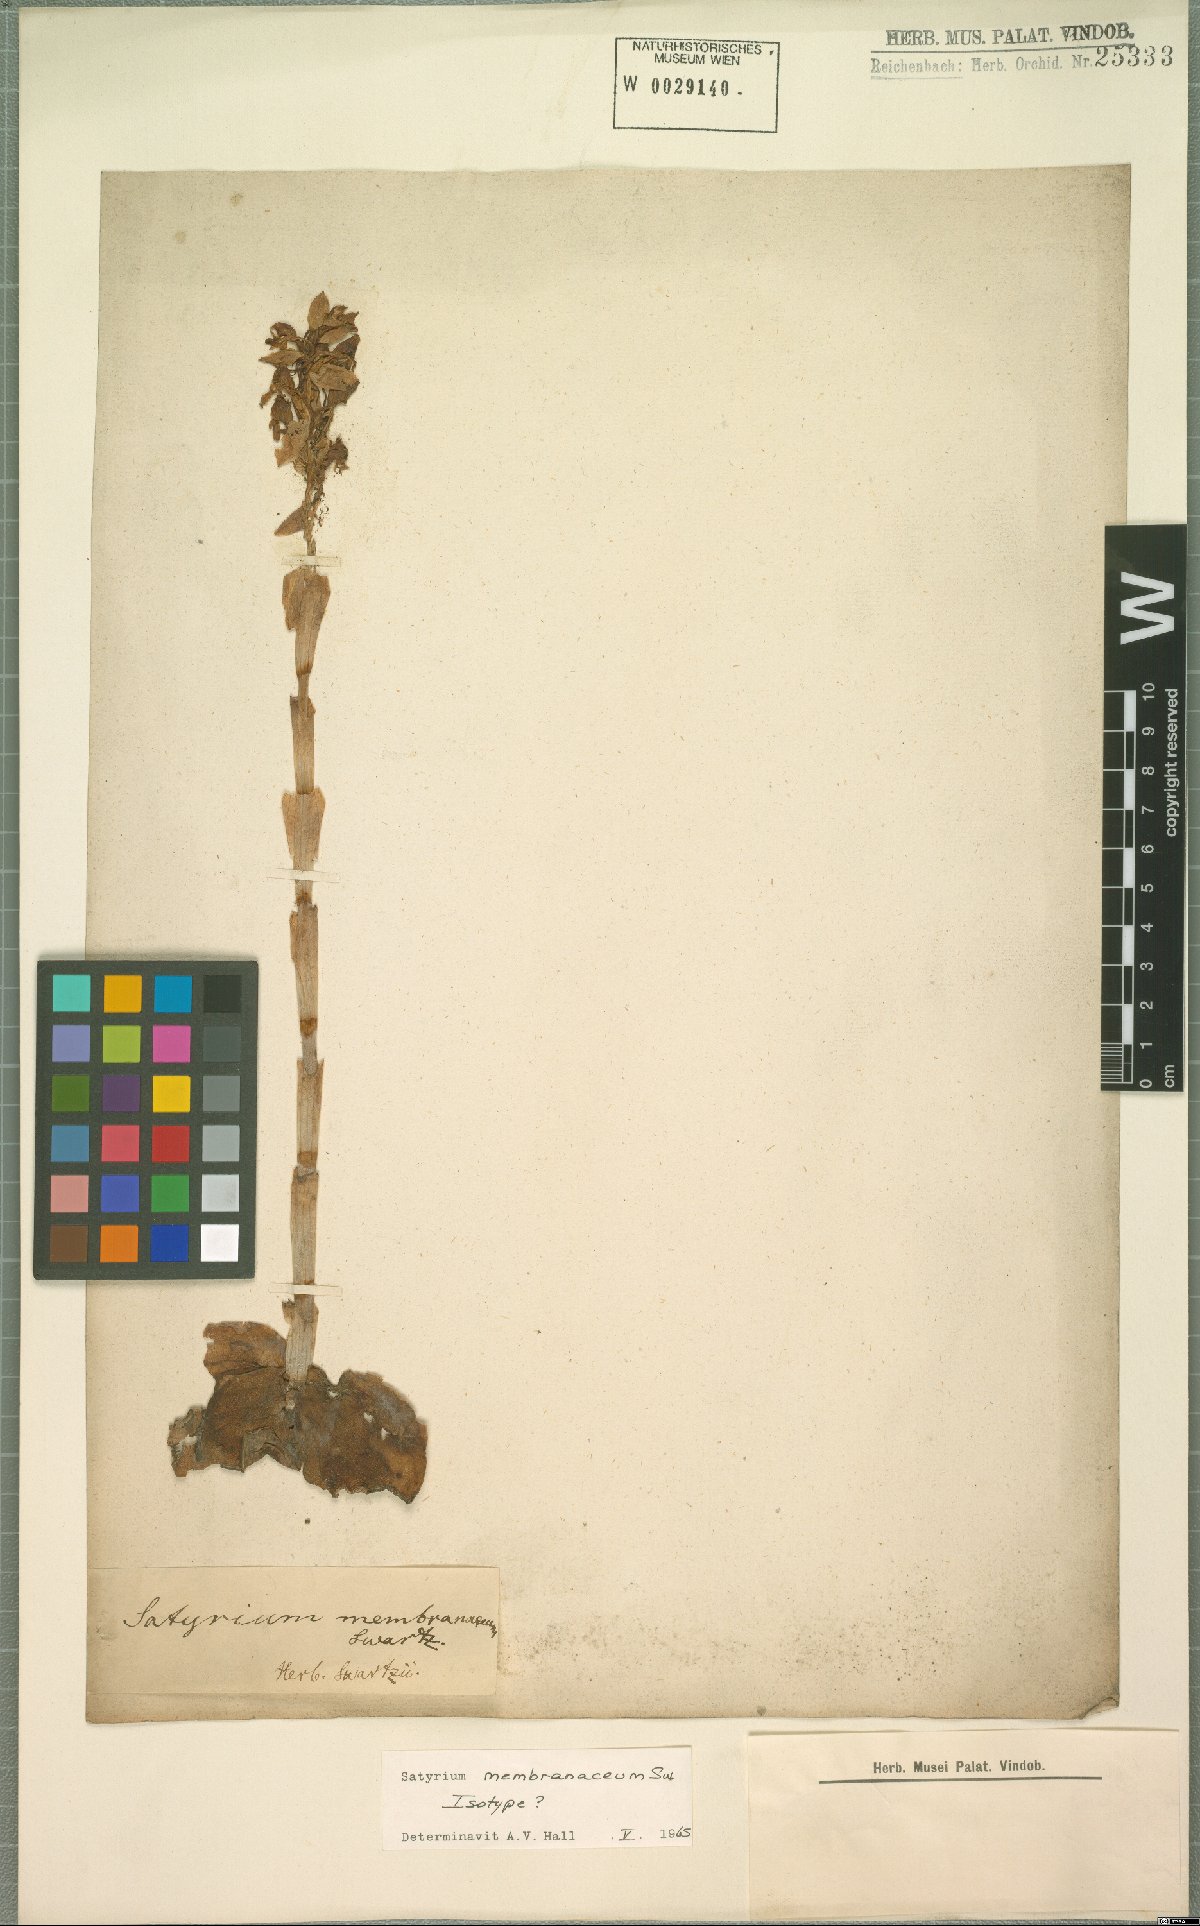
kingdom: Plantae
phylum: Tracheophyta
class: Liliopsida
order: Asparagales
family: Orchidaceae
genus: Satyrium
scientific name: Satyrium membranaceum
